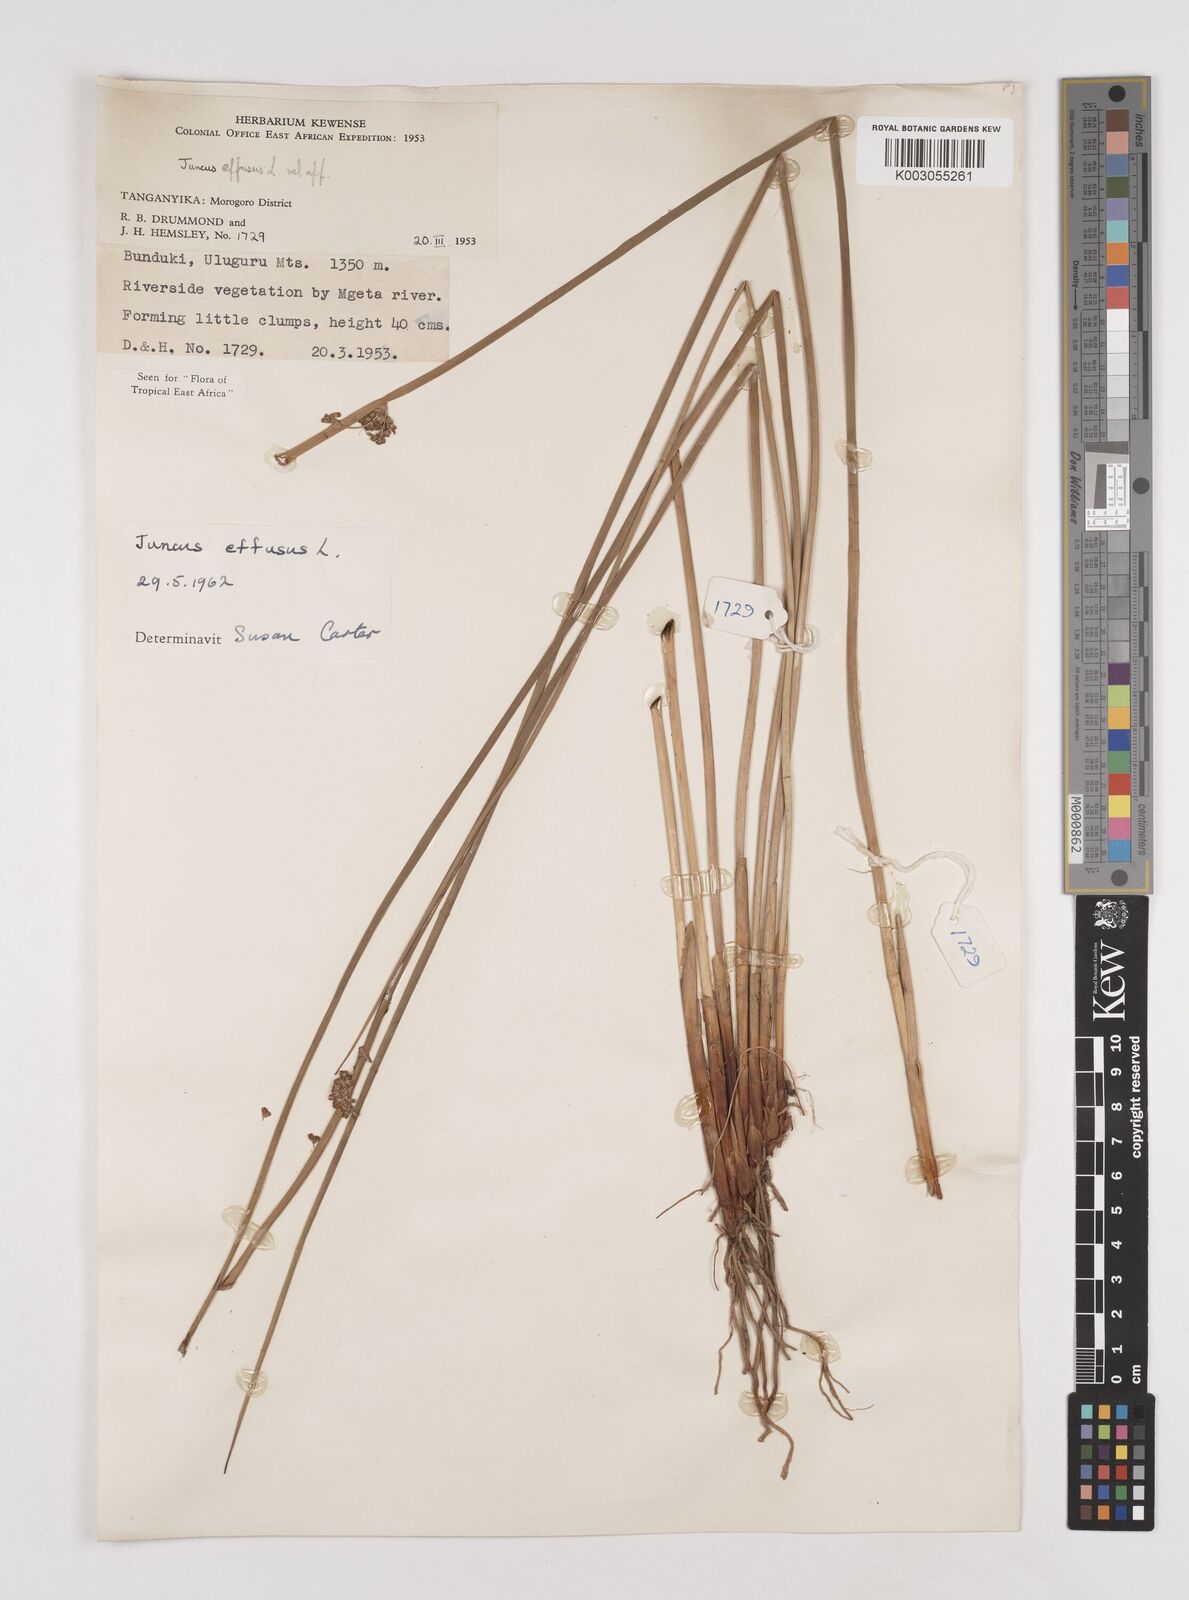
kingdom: Plantae
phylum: Tracheophyta
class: Liliopsida
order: Poales
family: Juncaceae
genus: Juncus
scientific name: Juncus effusus
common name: Soft rush
